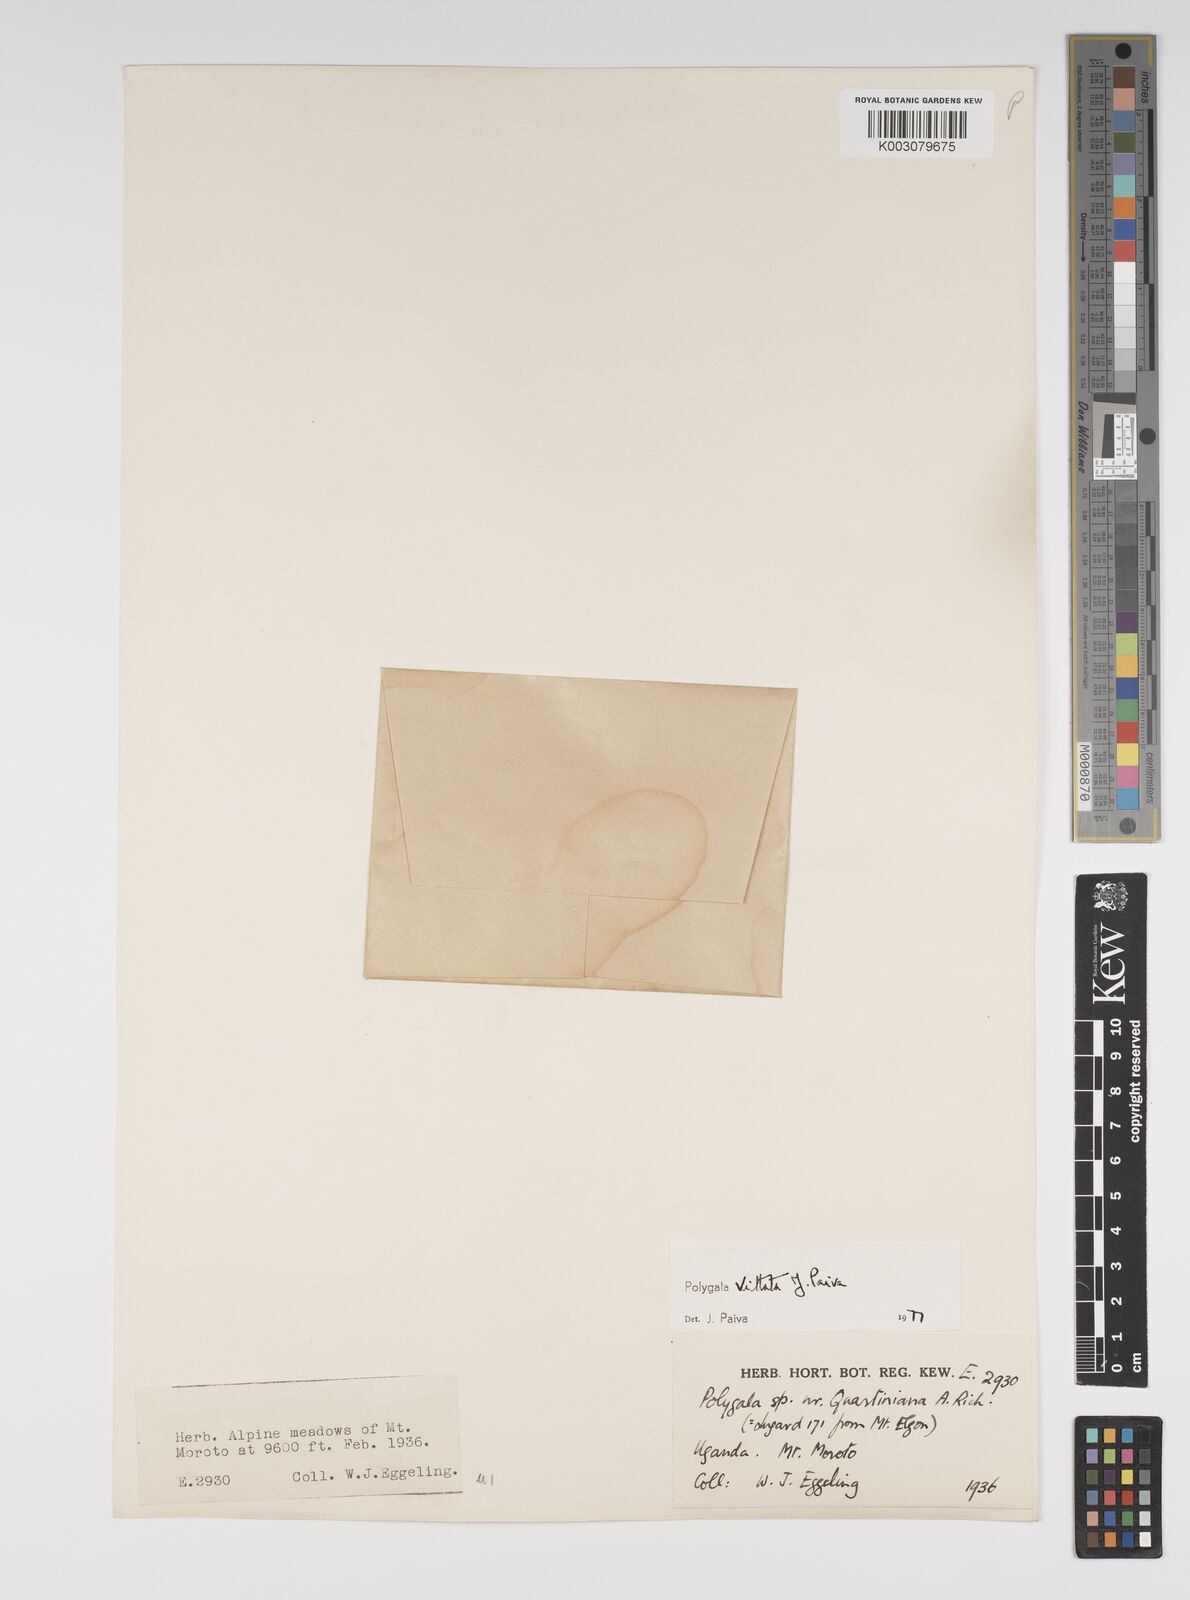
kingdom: Plantae
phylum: Tracheophyta
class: Magnoliopsida
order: Fabales
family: Polygalaceae
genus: Polygala
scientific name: Polygala vittata
